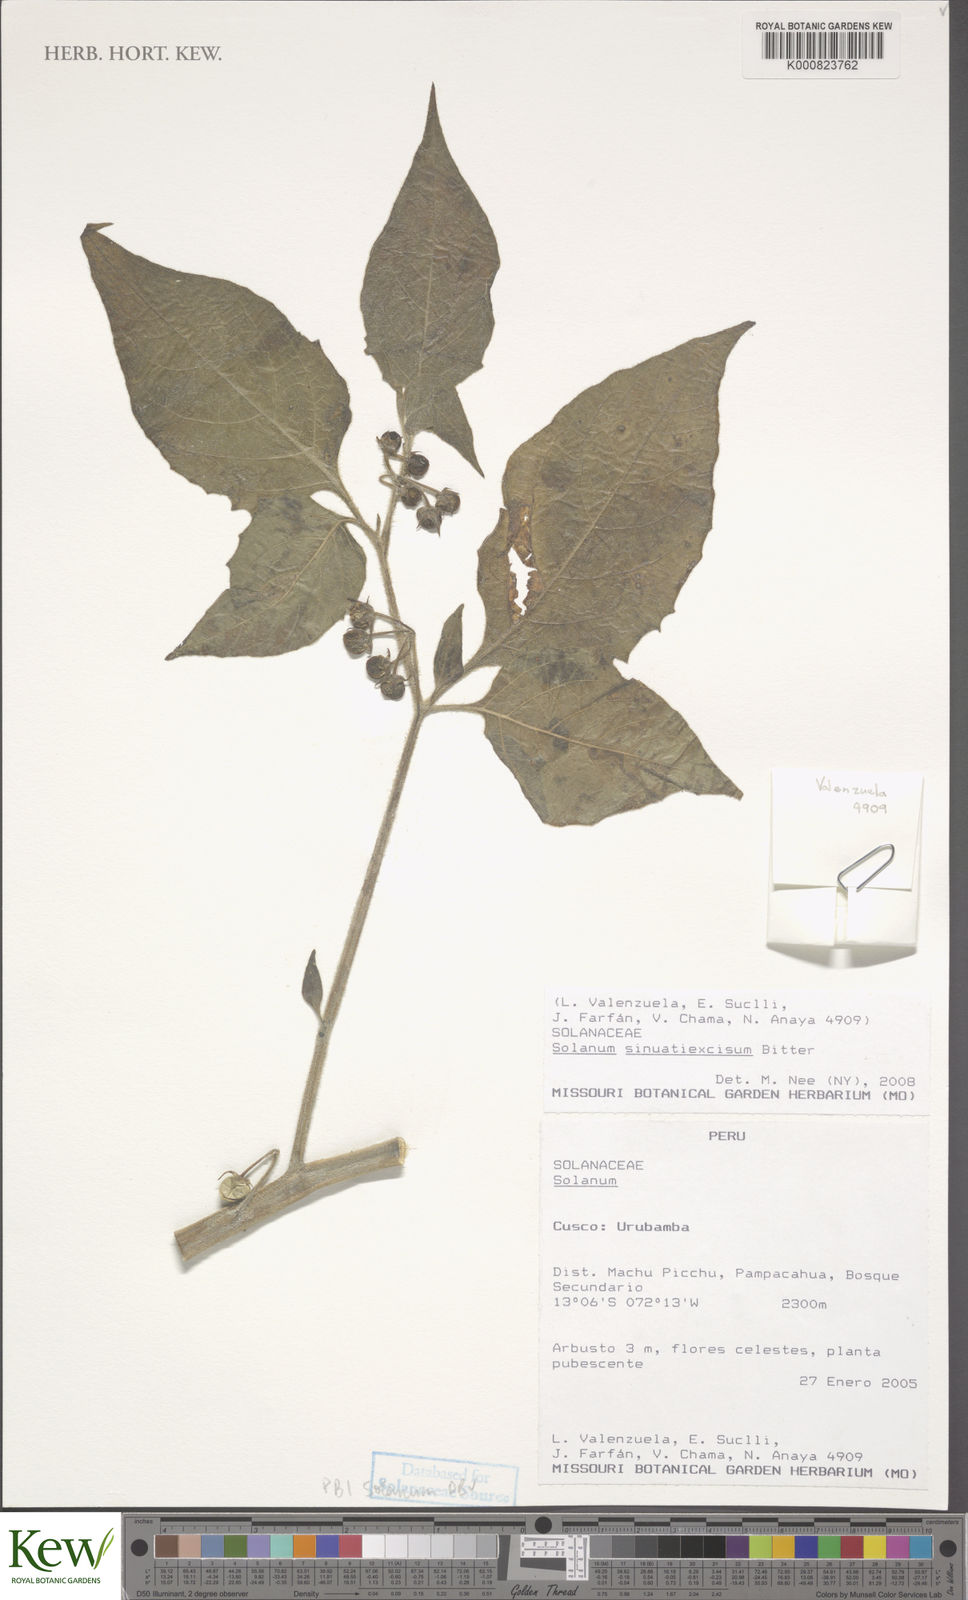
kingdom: Plantae
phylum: Tracheophyta
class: Magnoliopsida
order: Solanales
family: Solanaceae
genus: Solanum
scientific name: Solanum sinuatiexcisum
